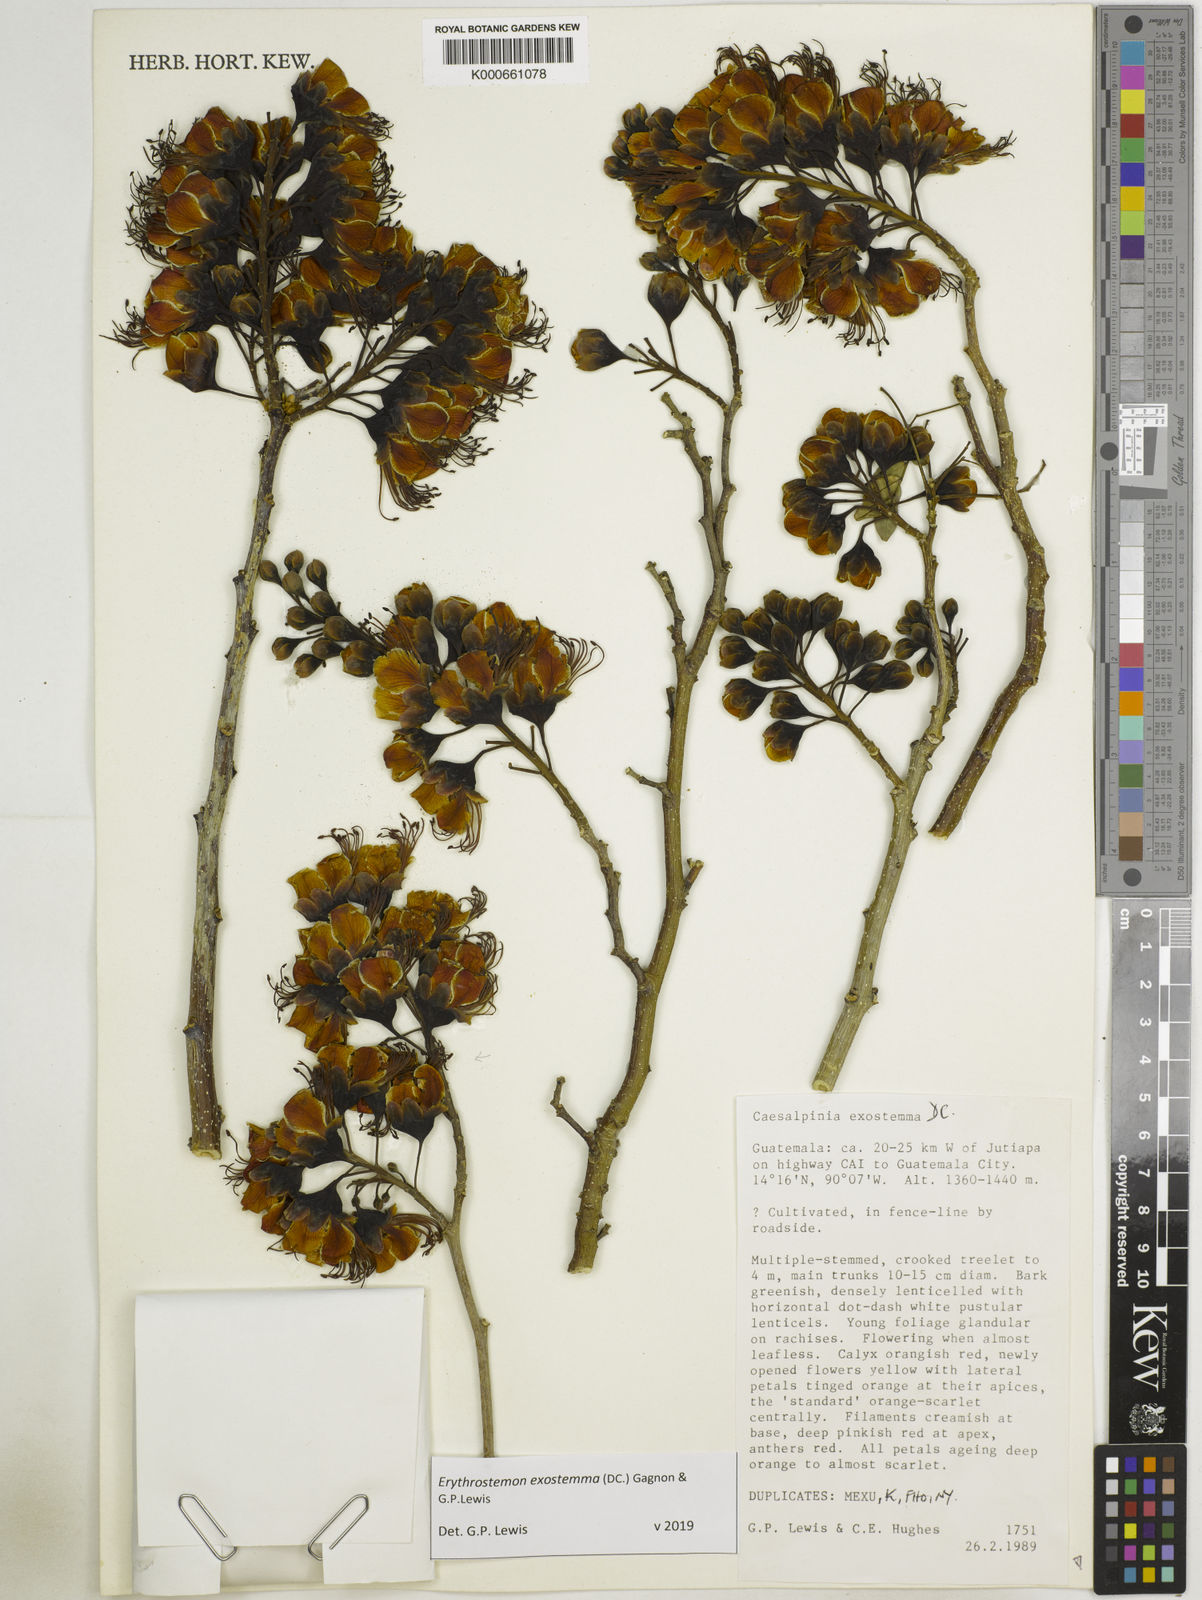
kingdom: Plantae
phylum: Tracheophyta
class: Magnoliopsida
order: Fabales
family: Fabaceae
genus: Erythrostemon
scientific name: Erythrostemon exostemma
